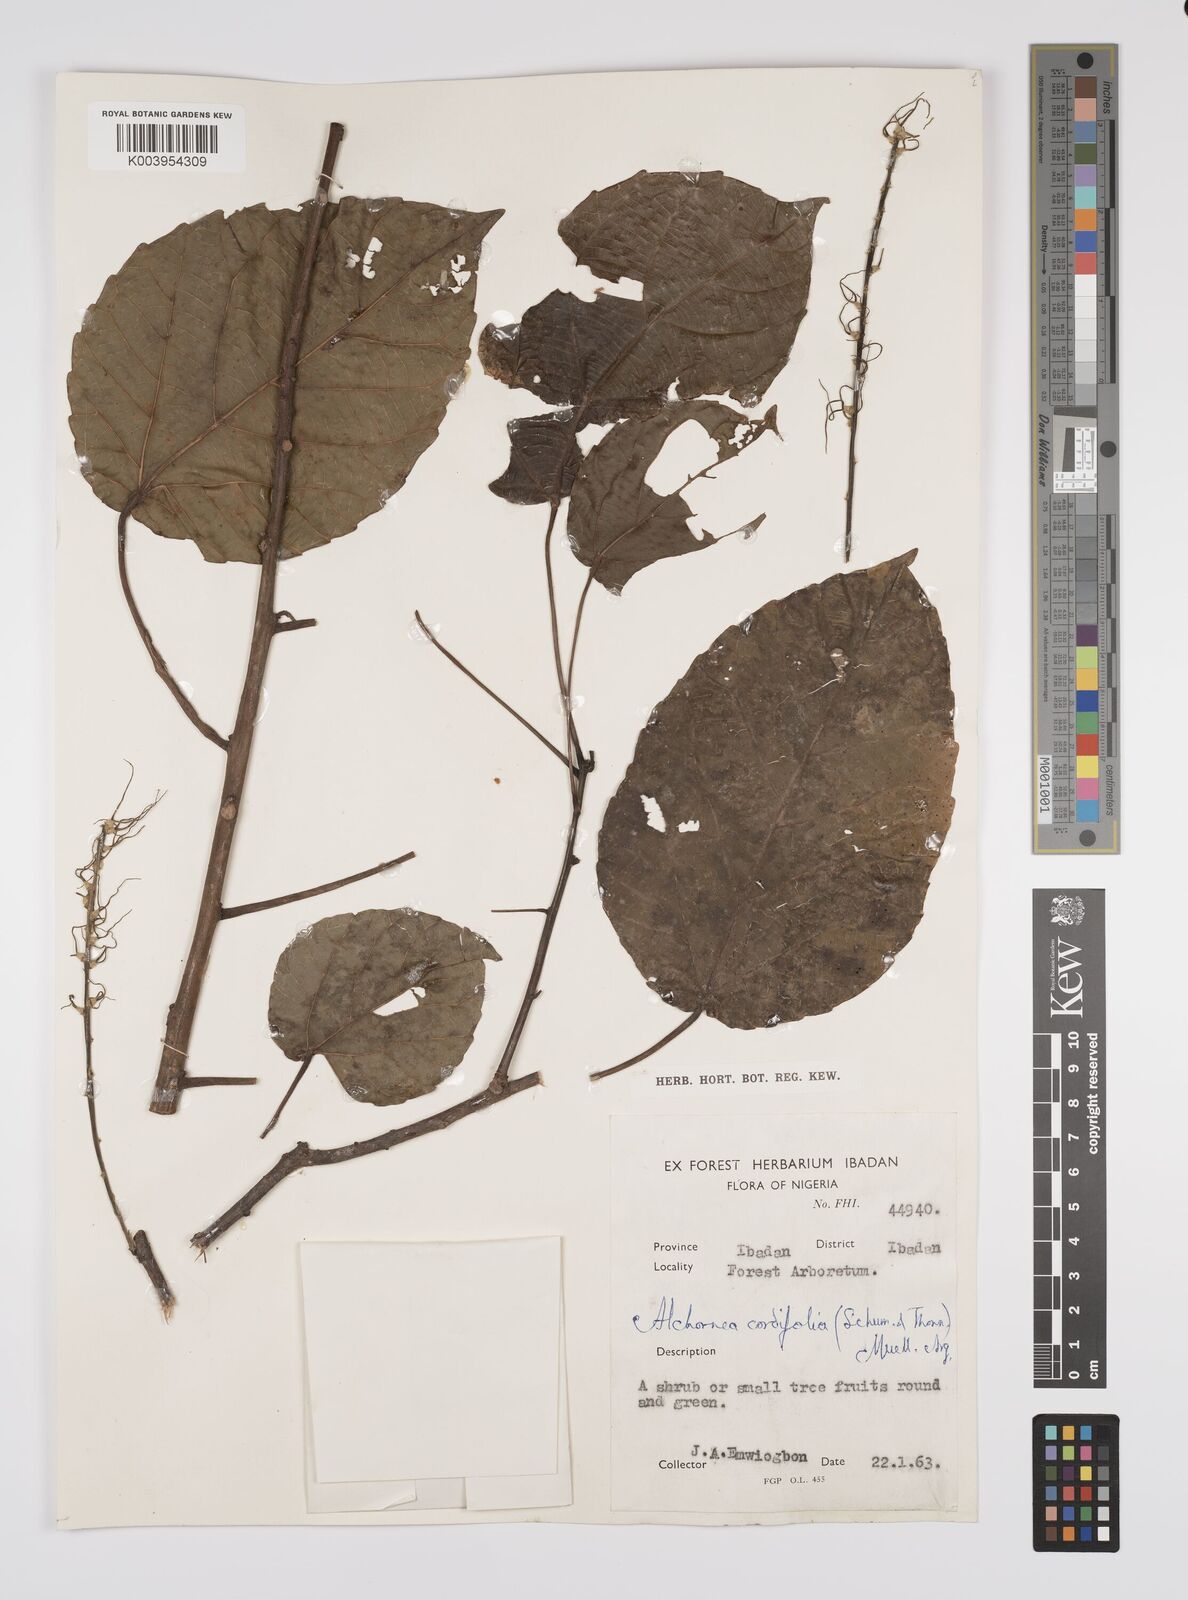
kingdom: Plantae
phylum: Tracheophyta
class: Magnoliopsida
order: Malpighiales
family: Euphorbiaceae
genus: Alchornea
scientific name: Alchornea cordifolia
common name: Christmasbush
